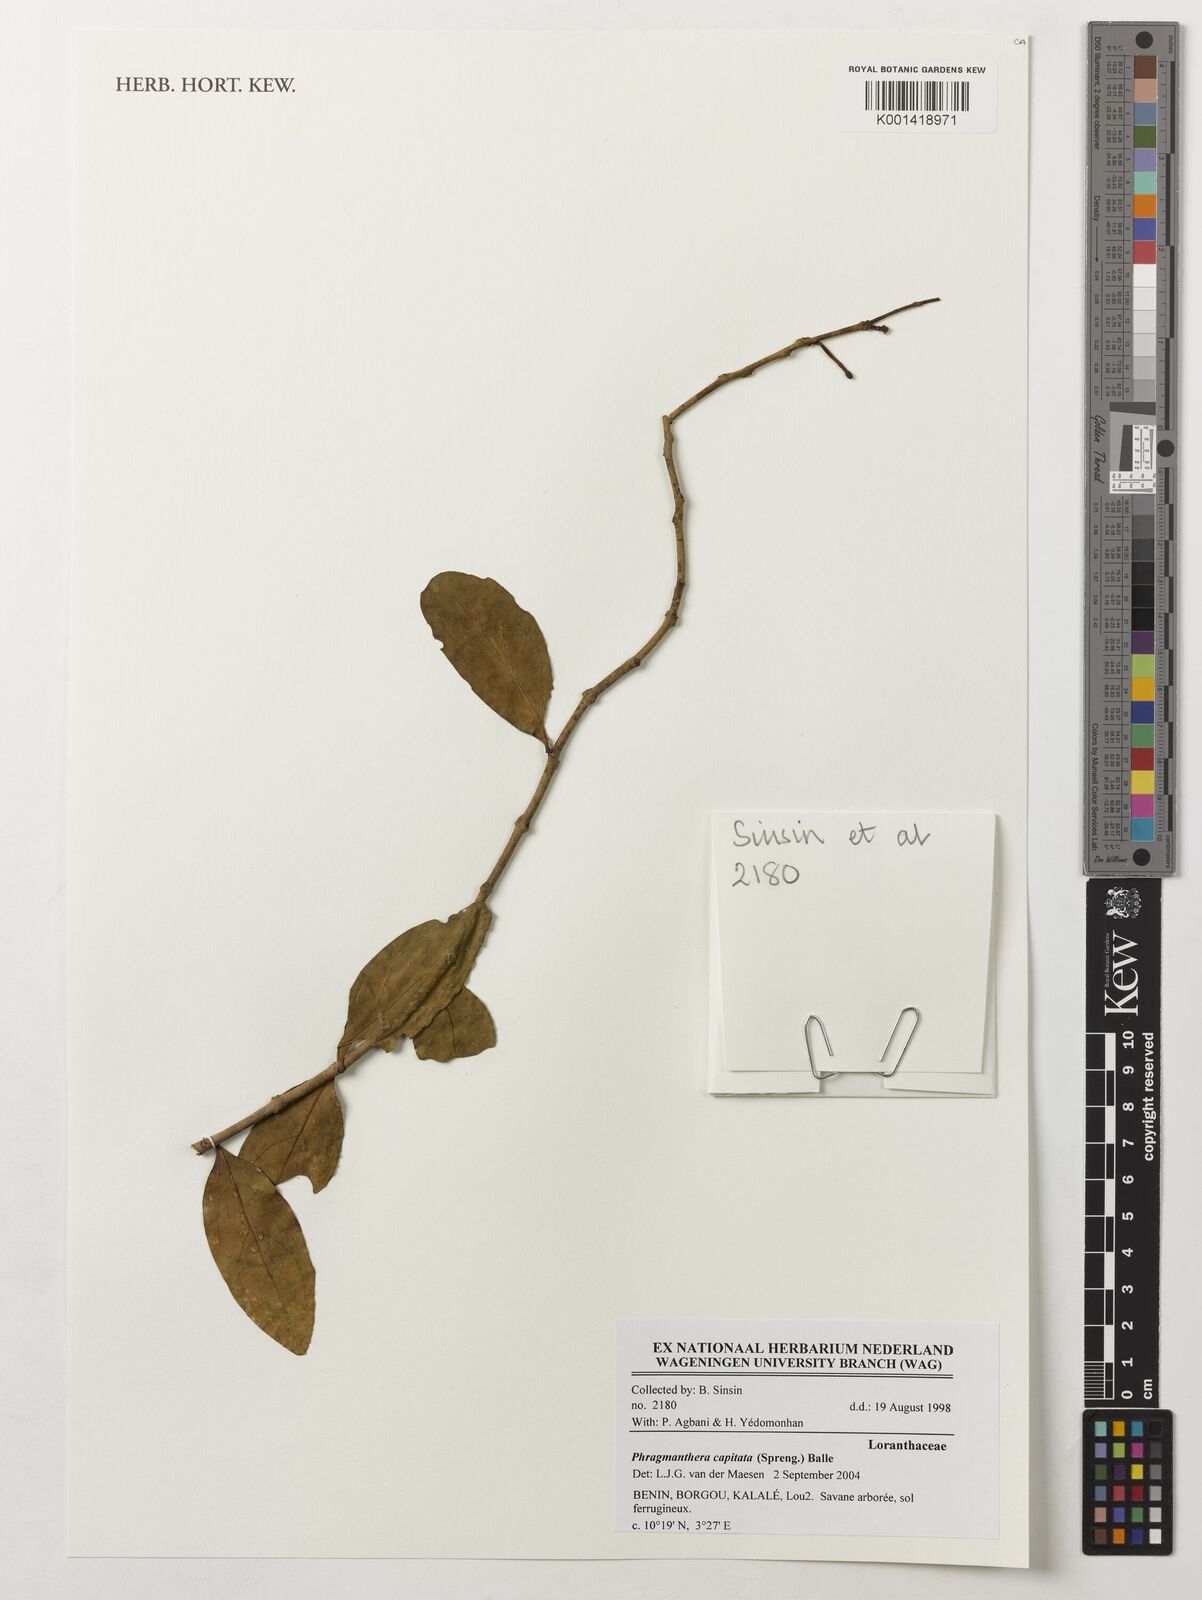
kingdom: Plantae
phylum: Tracheophyta
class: Magnoliopsida
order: Santalales
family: Loranthaceae
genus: Phragmanthera
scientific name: Phragmanthera capitata
